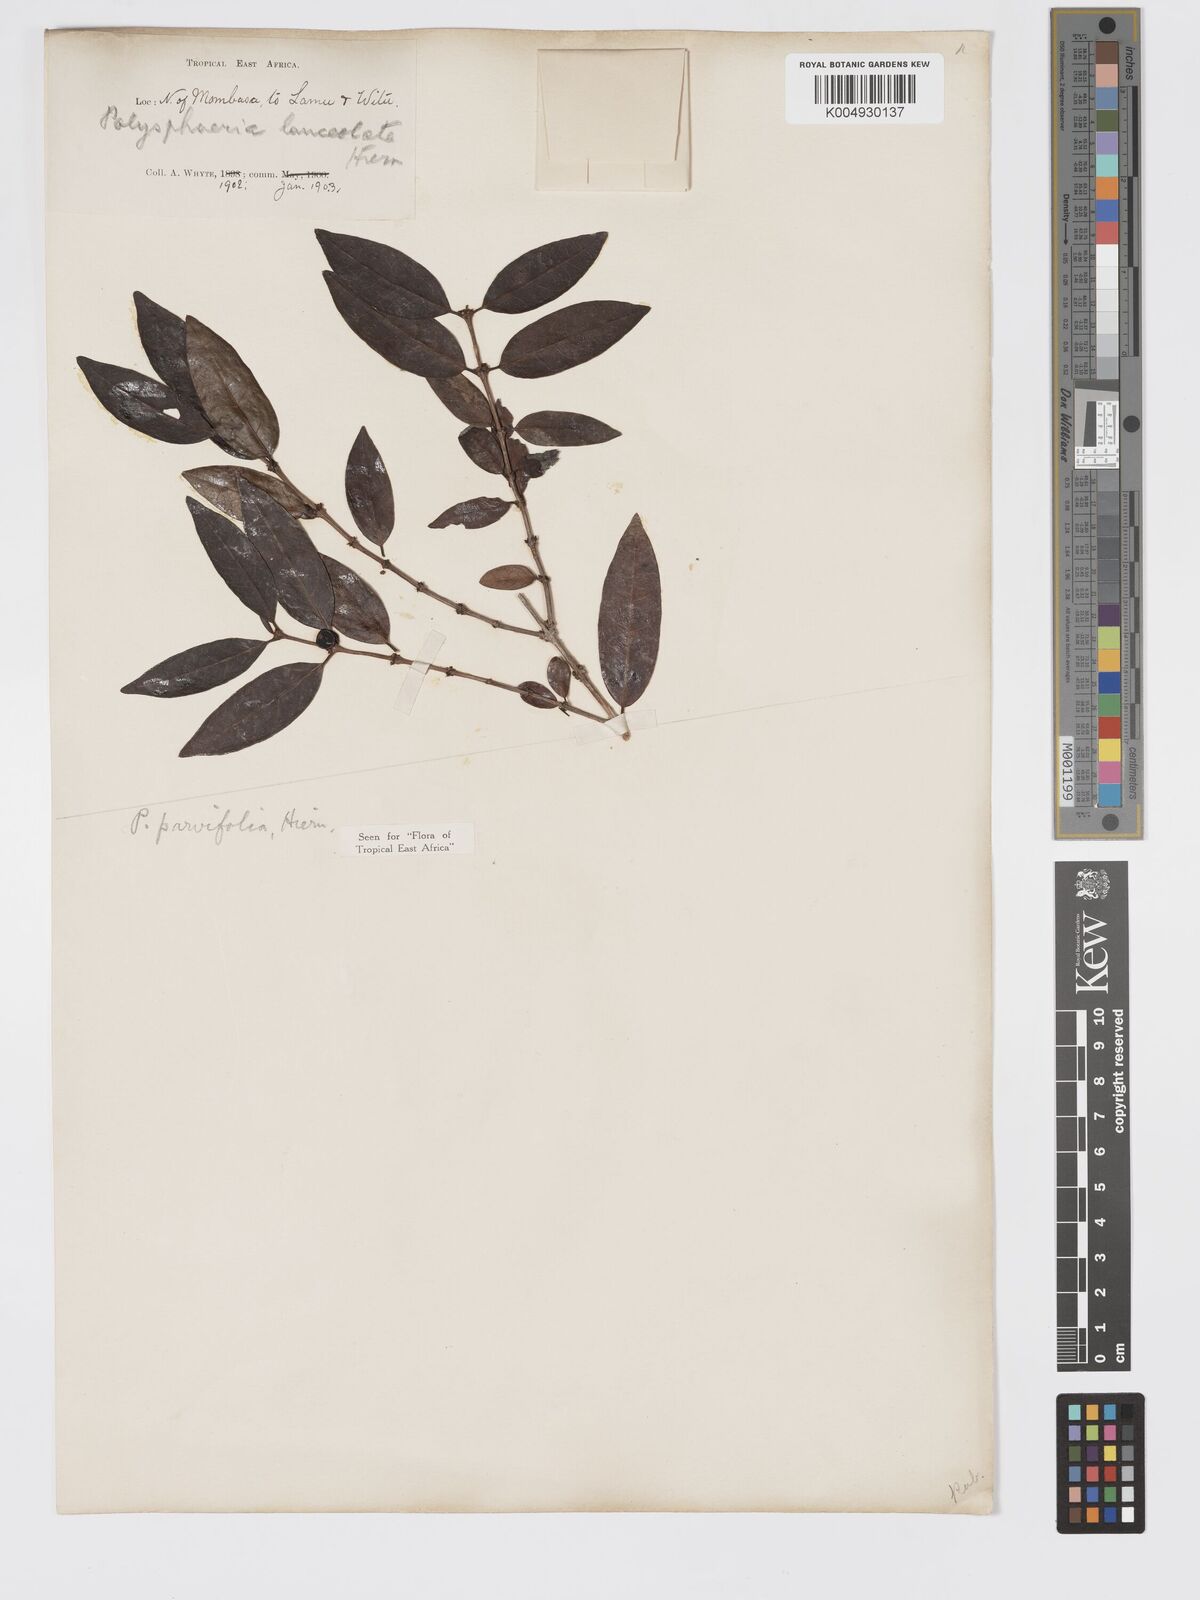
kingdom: Plantae
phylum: Tracheophyta
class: Magnoliopsida
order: Gentianales
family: Rubiaceae
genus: Polysphaeria
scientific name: Polysphaeria parvifolia
